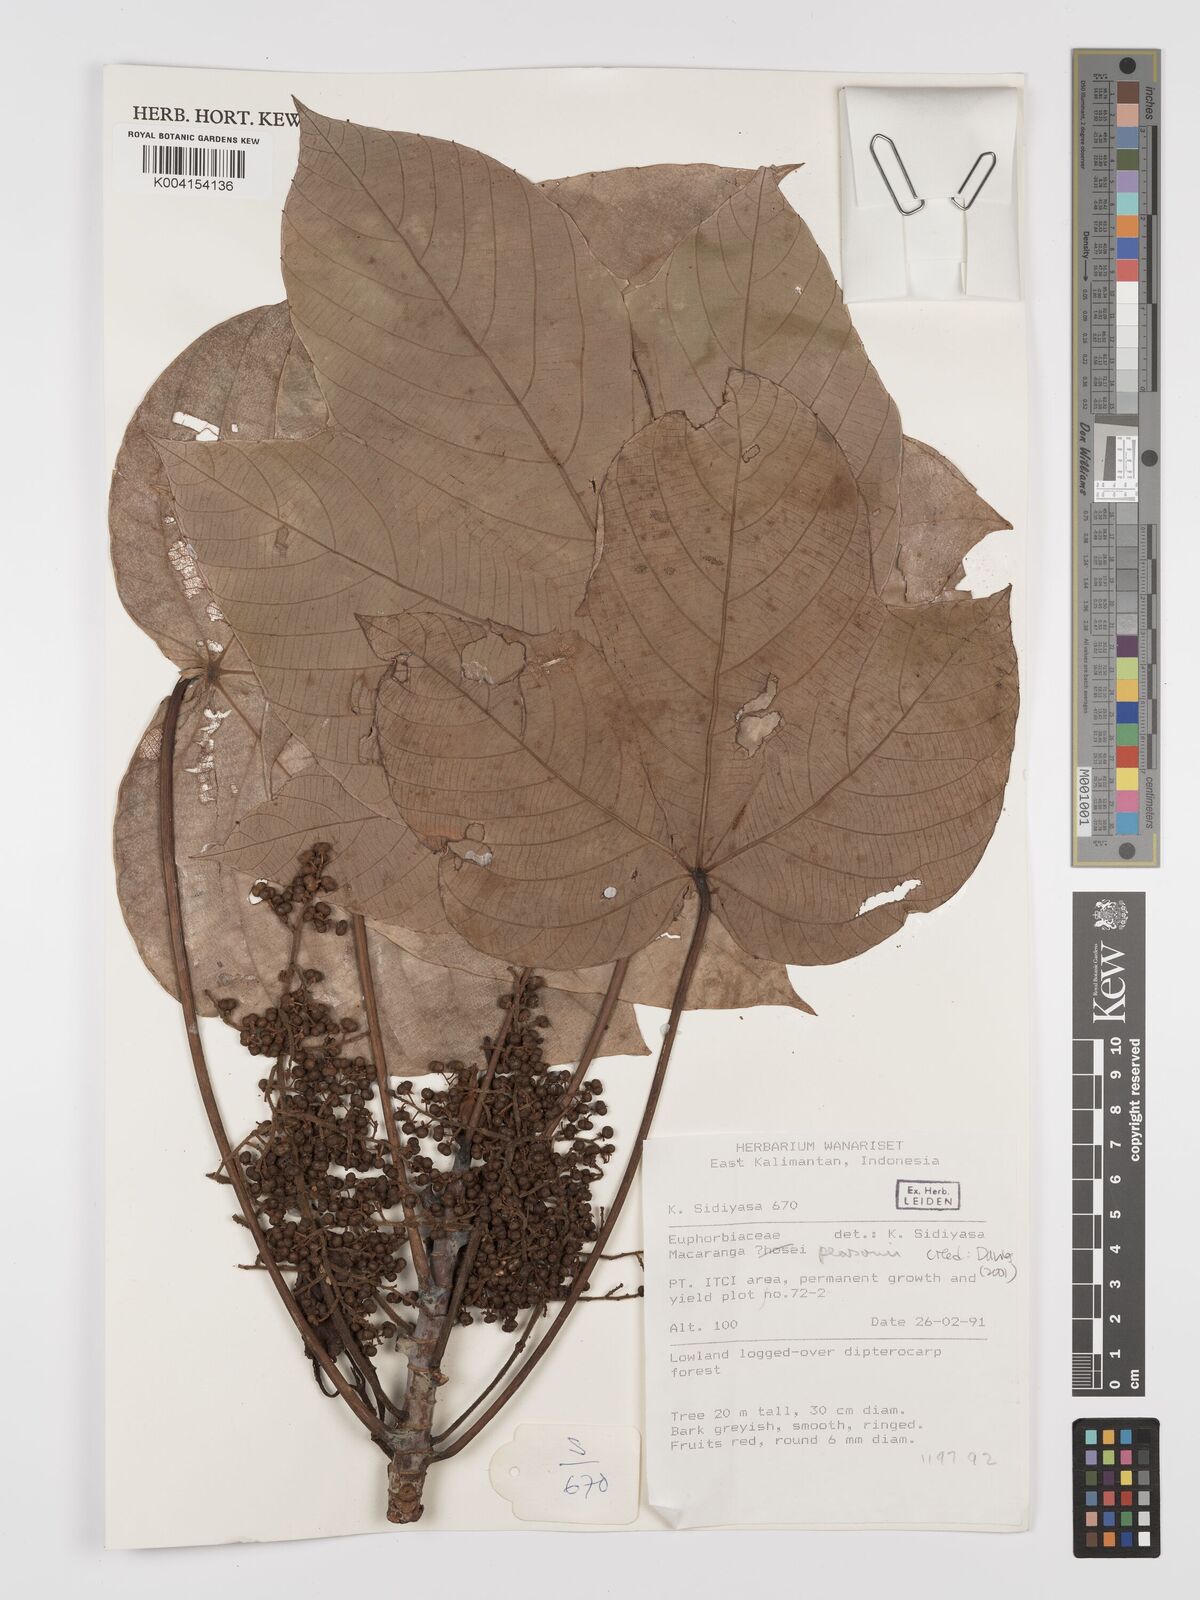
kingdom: Plantae
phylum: Tracheophyta
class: Magnoliopsida
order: Malpighiales
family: Euphorbiaceae
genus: Macaranga
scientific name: Macaranga pearsonii
